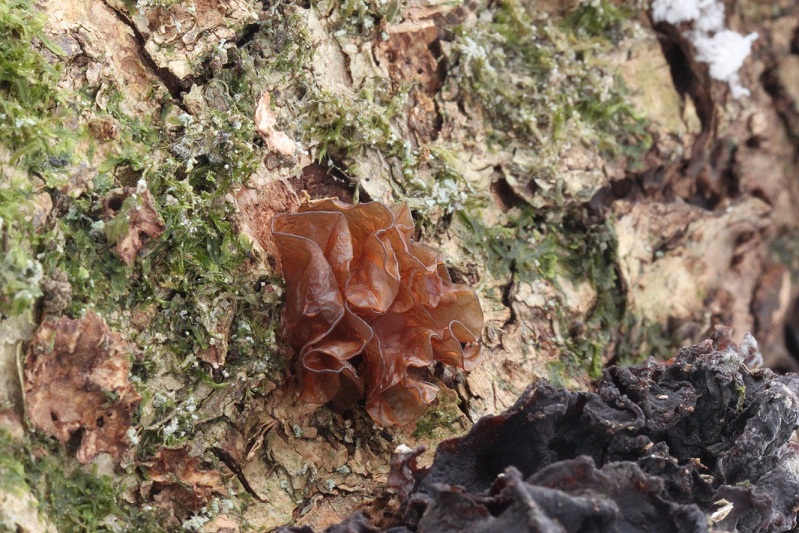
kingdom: Fungi
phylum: Basidiomycota
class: Tremellomycetes
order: Tremellales
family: Tremellaceae
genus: Phaeotremella
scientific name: Phaeotremella frondosa
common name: kæmpe-bævresvamp
